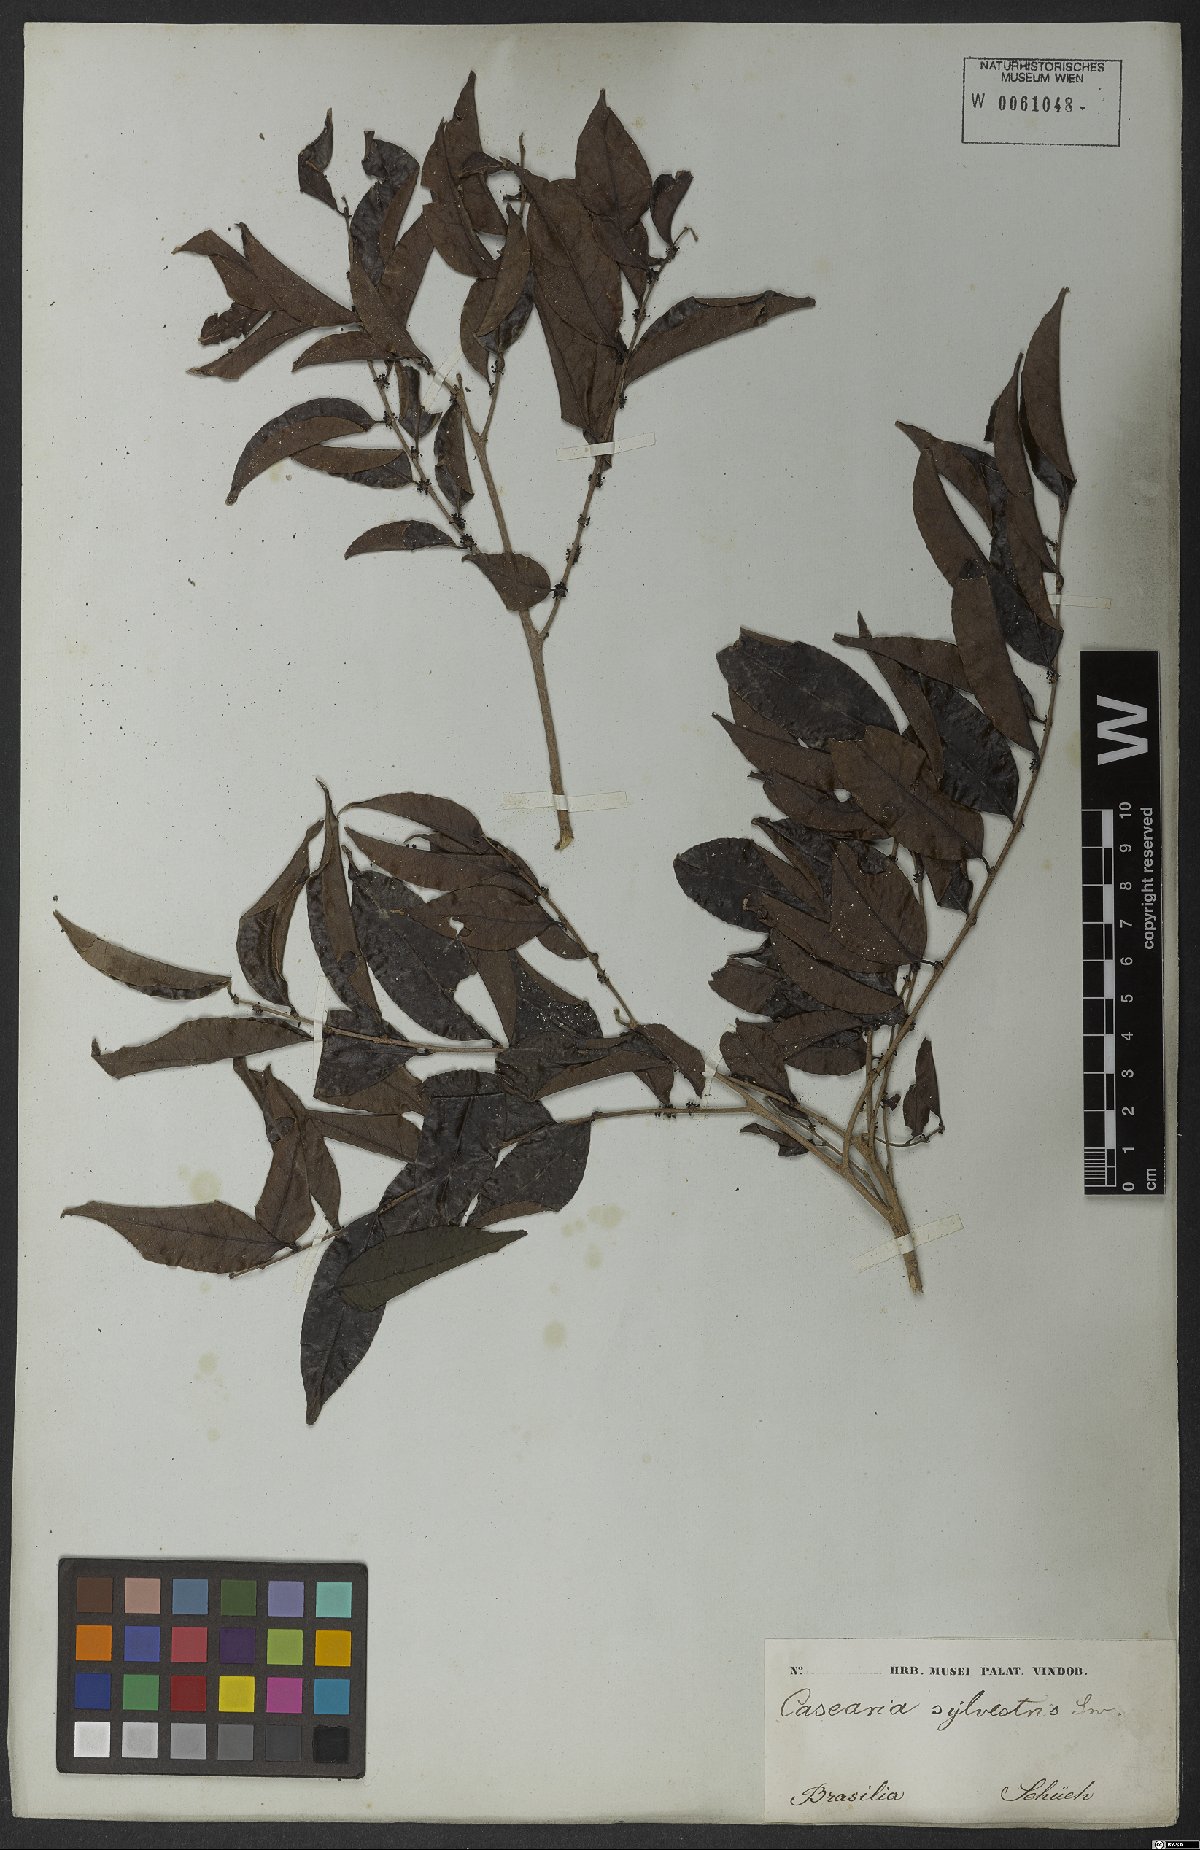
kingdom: Plantae
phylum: Tracheophyta
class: Magnoliopsida
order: Malpighiales
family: Salicaceae
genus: Casearia
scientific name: Casearia sylvestris
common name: Wild sage
